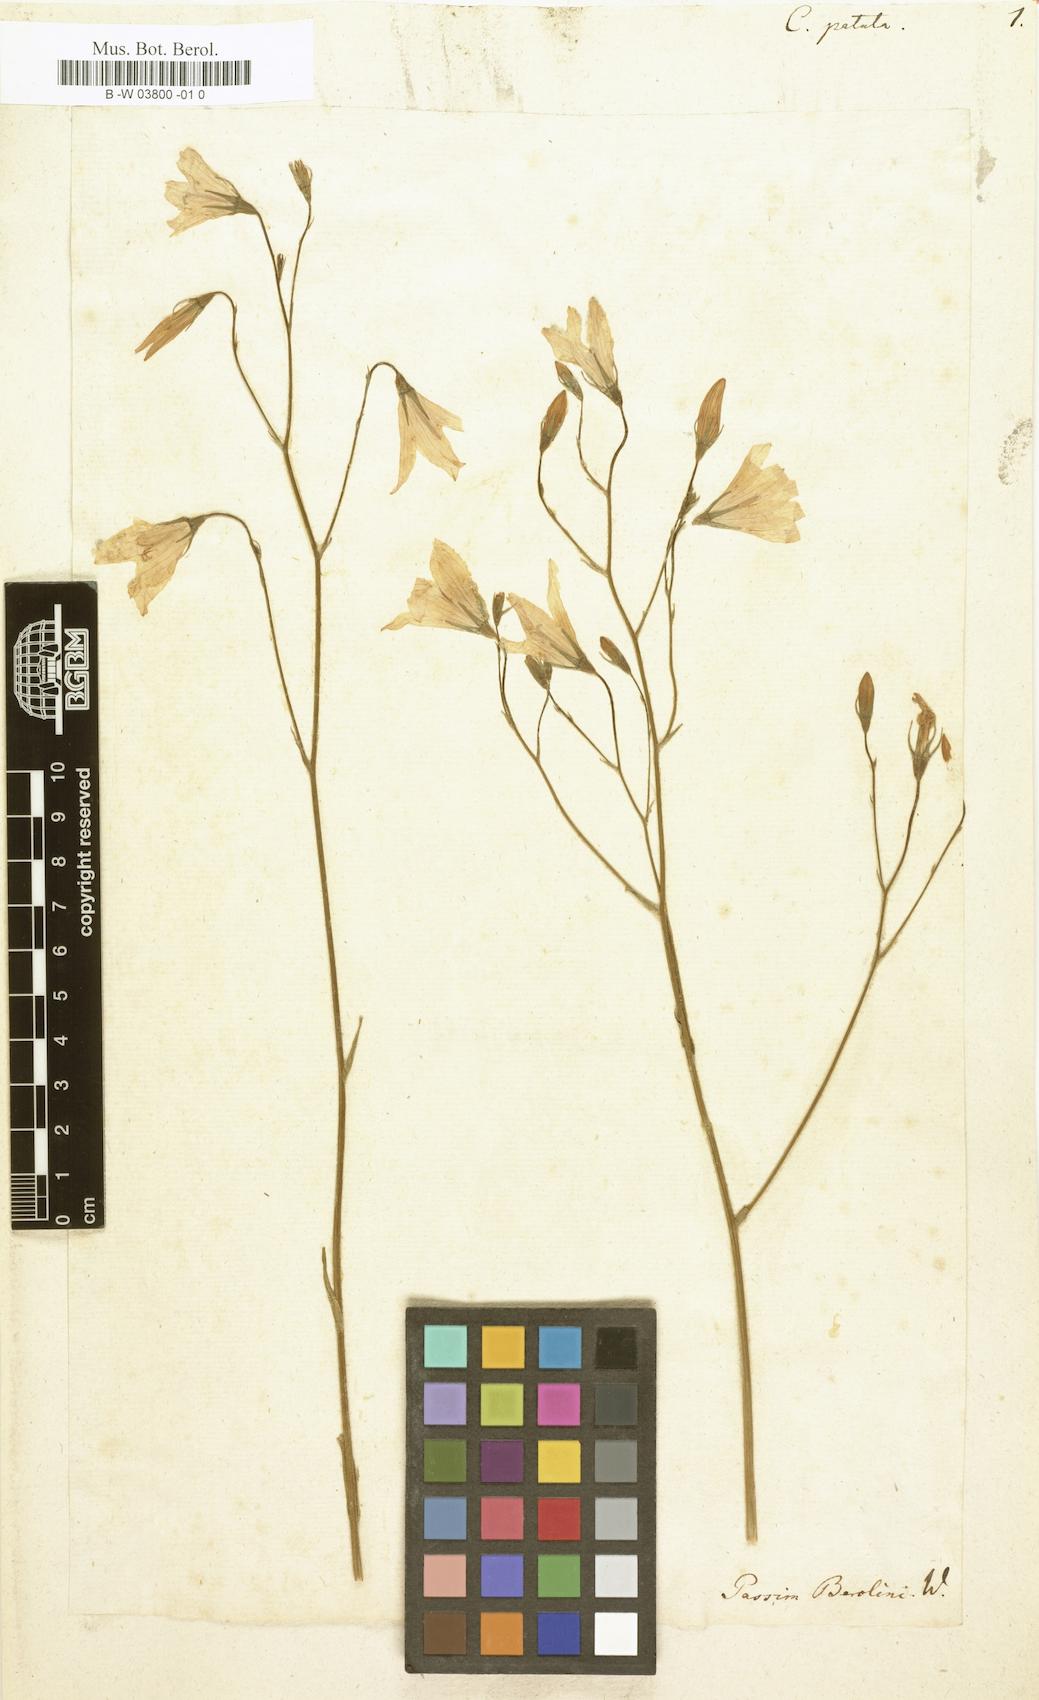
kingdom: Plantae
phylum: Tracheophyta
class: Magnoliopsida
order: Asterales
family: Campanulaceae
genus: Campanula
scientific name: Campanula patula
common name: Spreading bellflower
